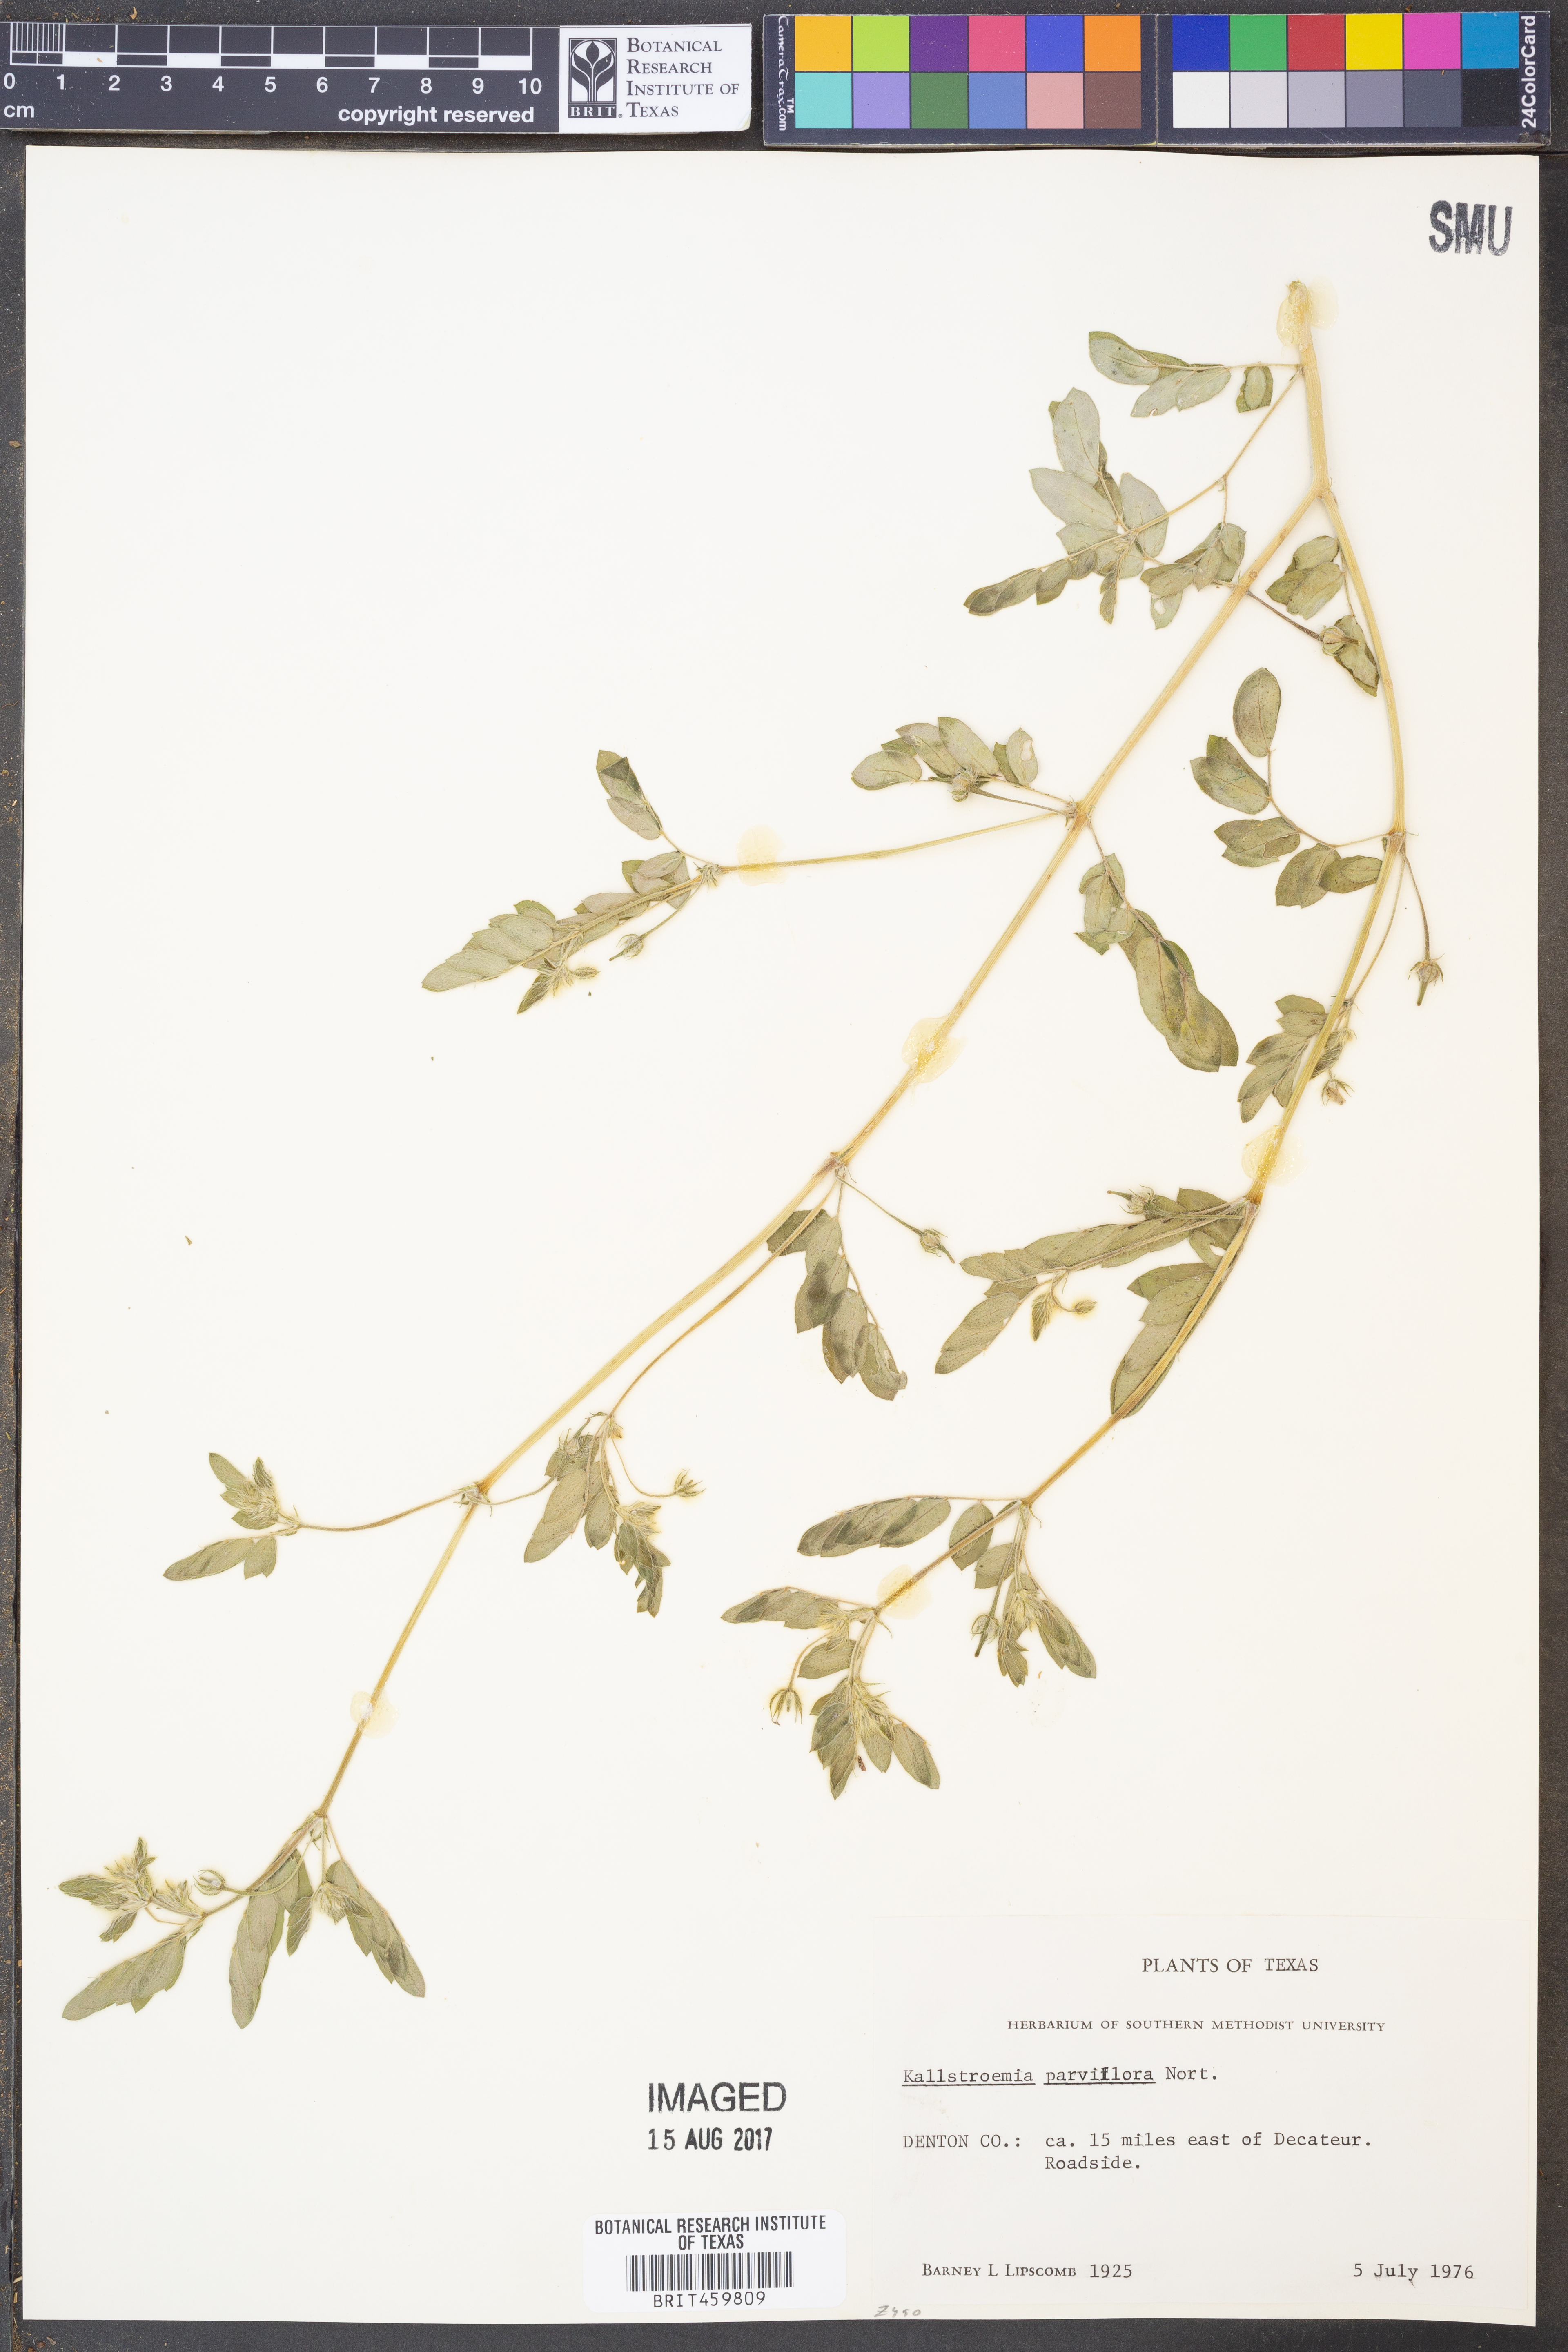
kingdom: Plantae
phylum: Tracheophyta
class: Magnoliopsida
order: Zygophyllales
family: Zygophyllaceae
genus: Kallstroemia
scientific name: Kallstroemia parviflora
